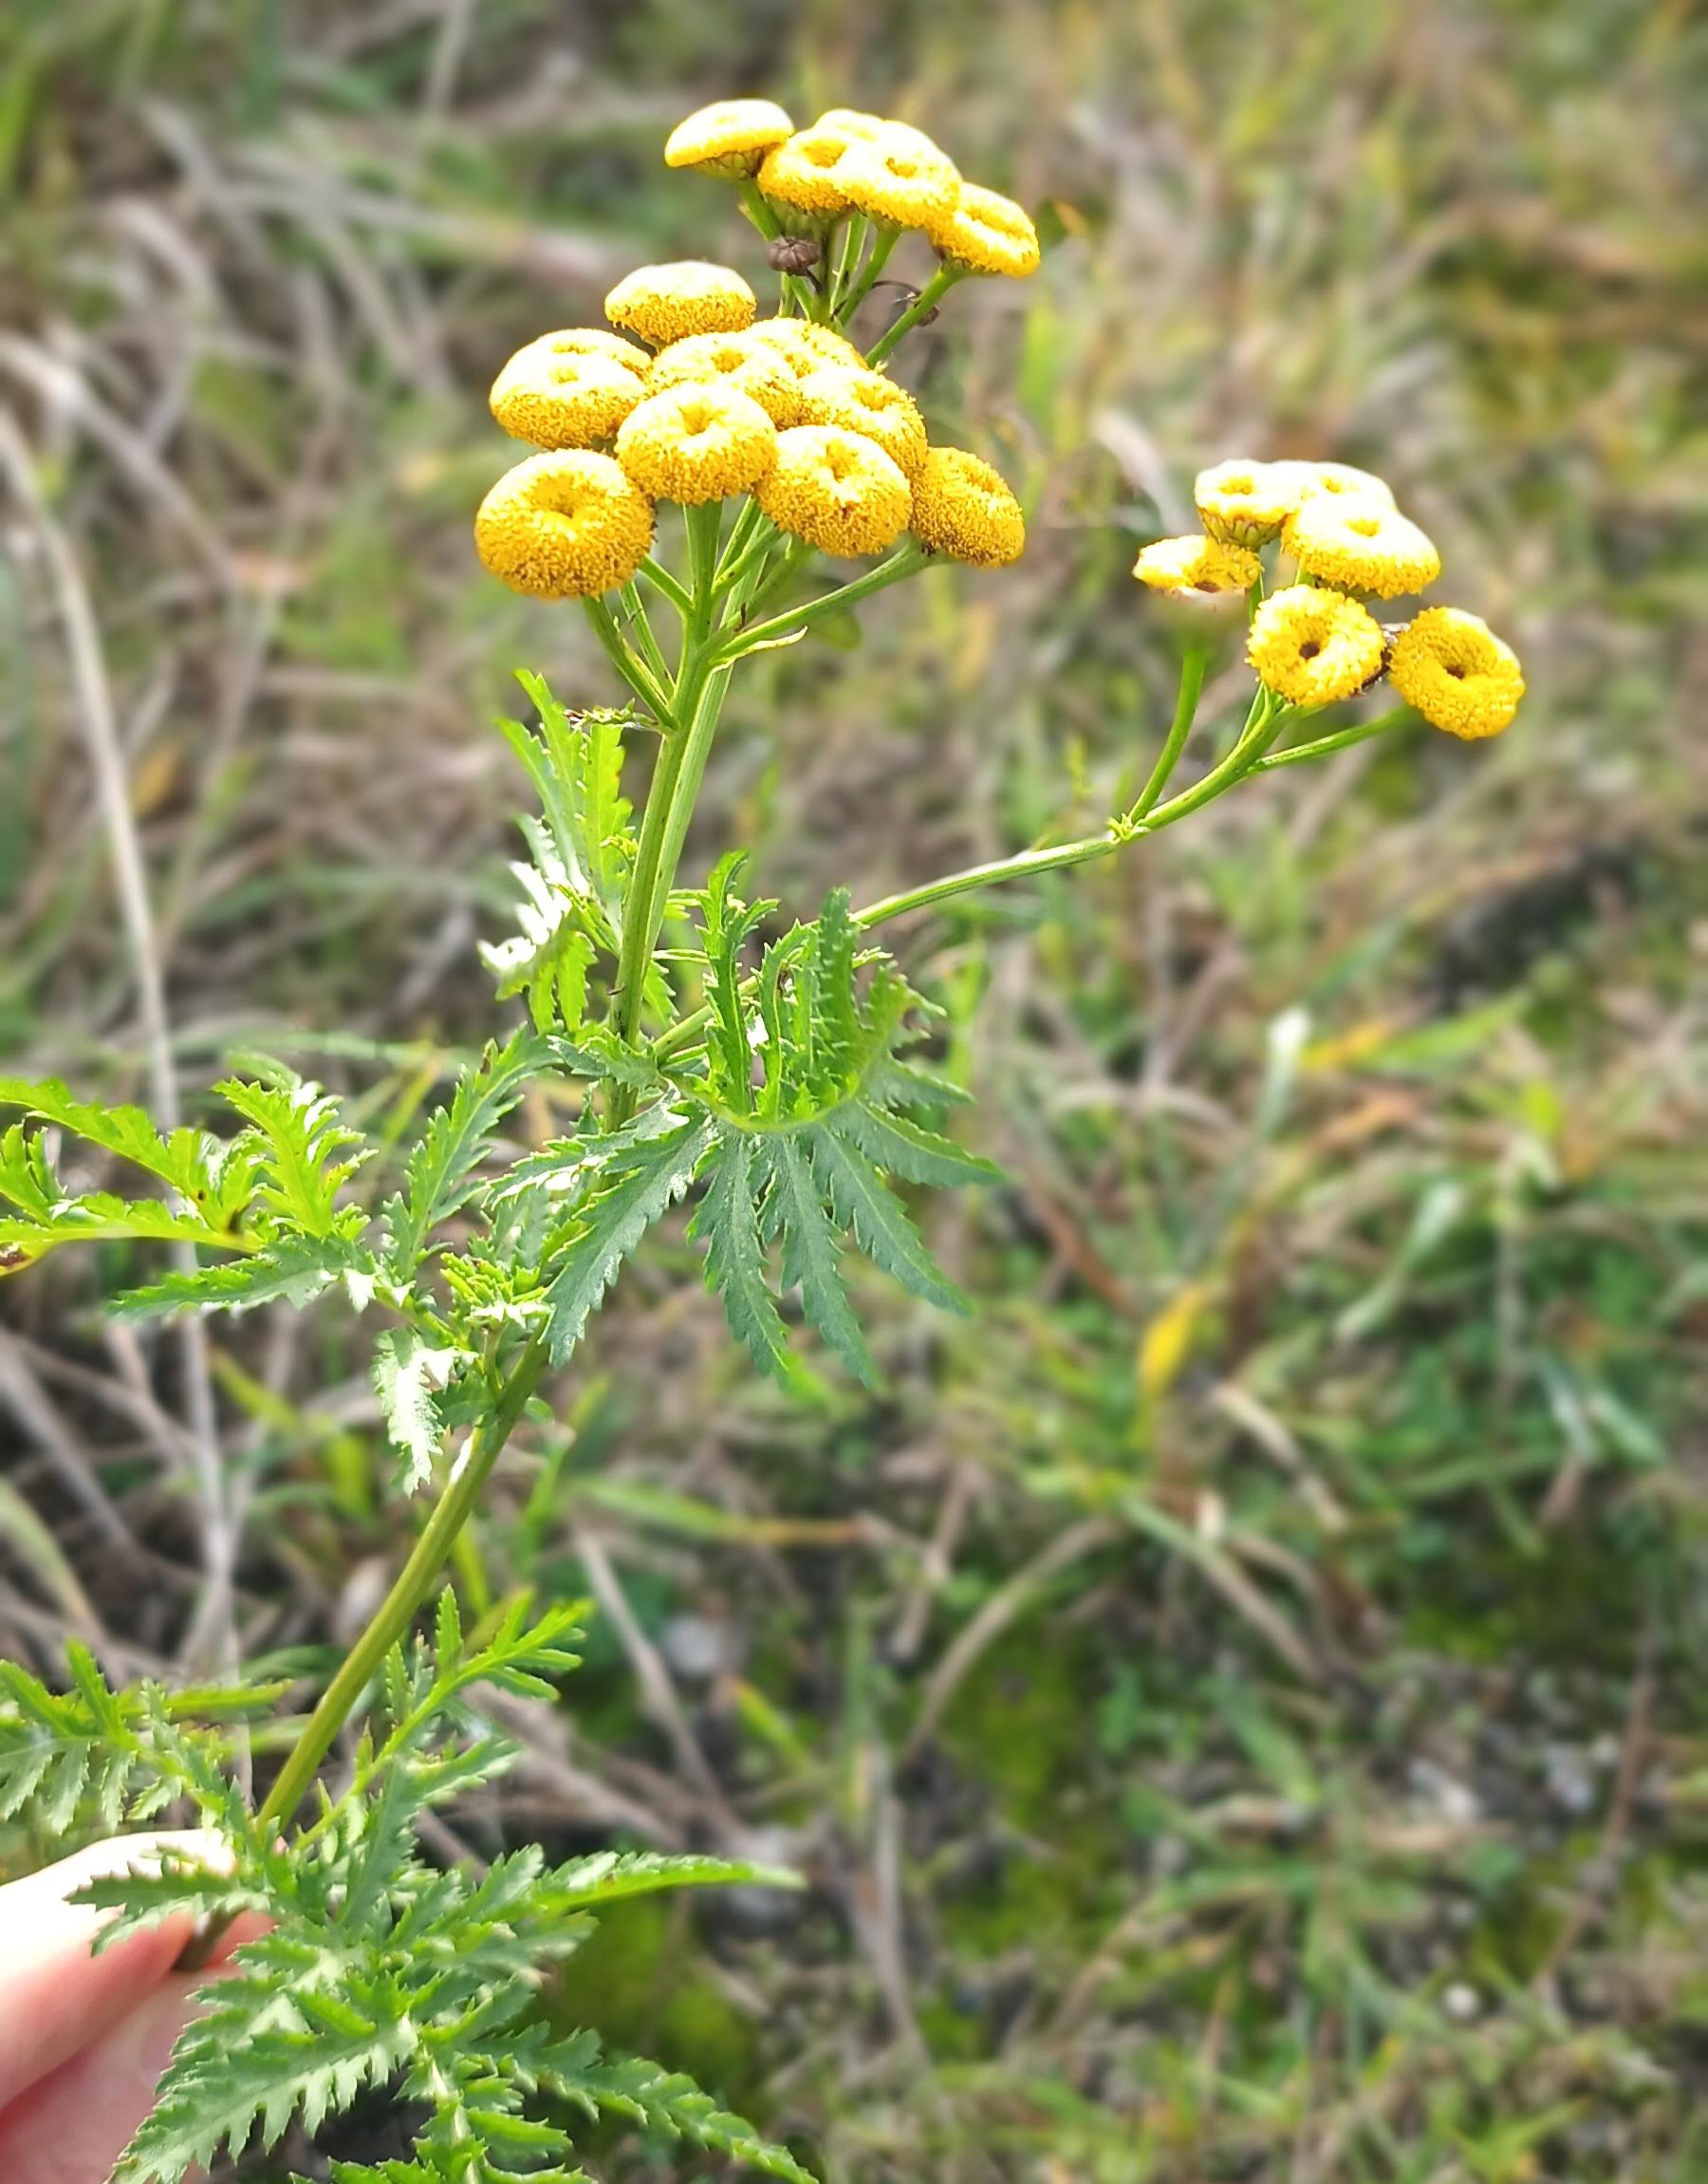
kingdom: Plantae
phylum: Tracheophyta
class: Magnoliopsida
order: Asterales
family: Asteraceae
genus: Tanacetum
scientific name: Tanacetum vulgare
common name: Rejnfan
